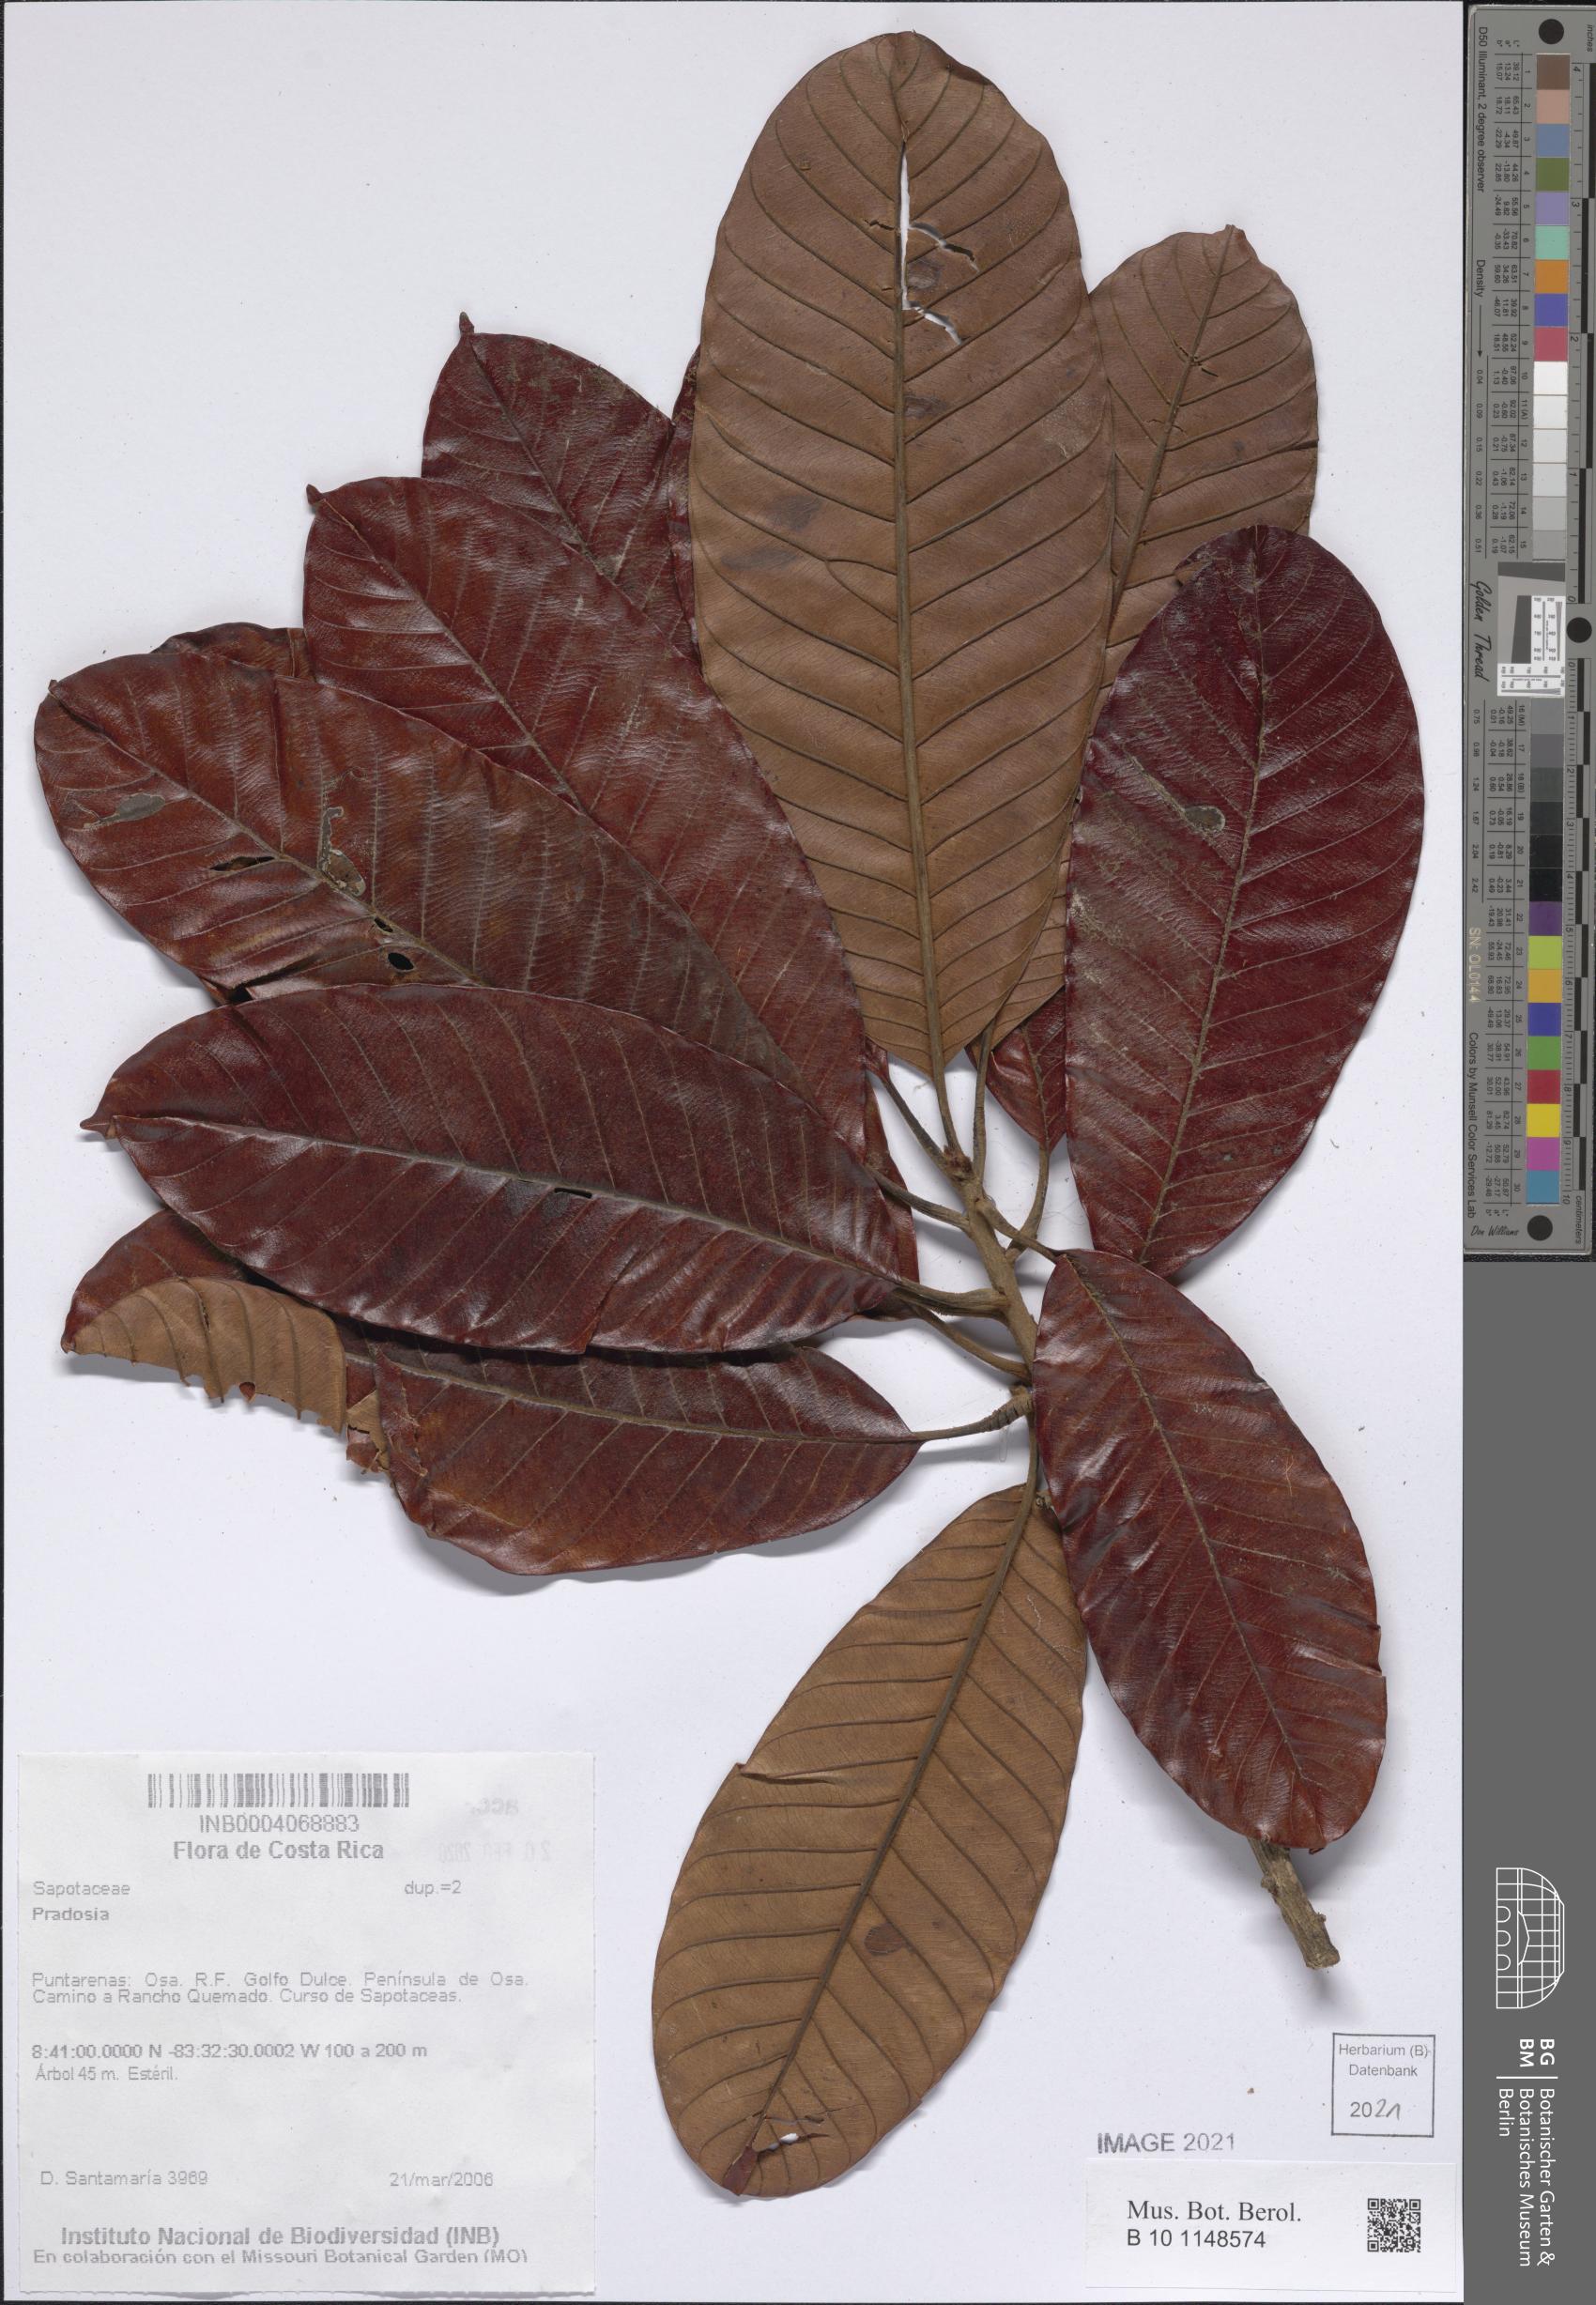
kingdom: Plantae
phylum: Tracheophyta
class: Magnoliopsida
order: Ericales
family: Sapotaceae
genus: Pradosia
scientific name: Pradosia
